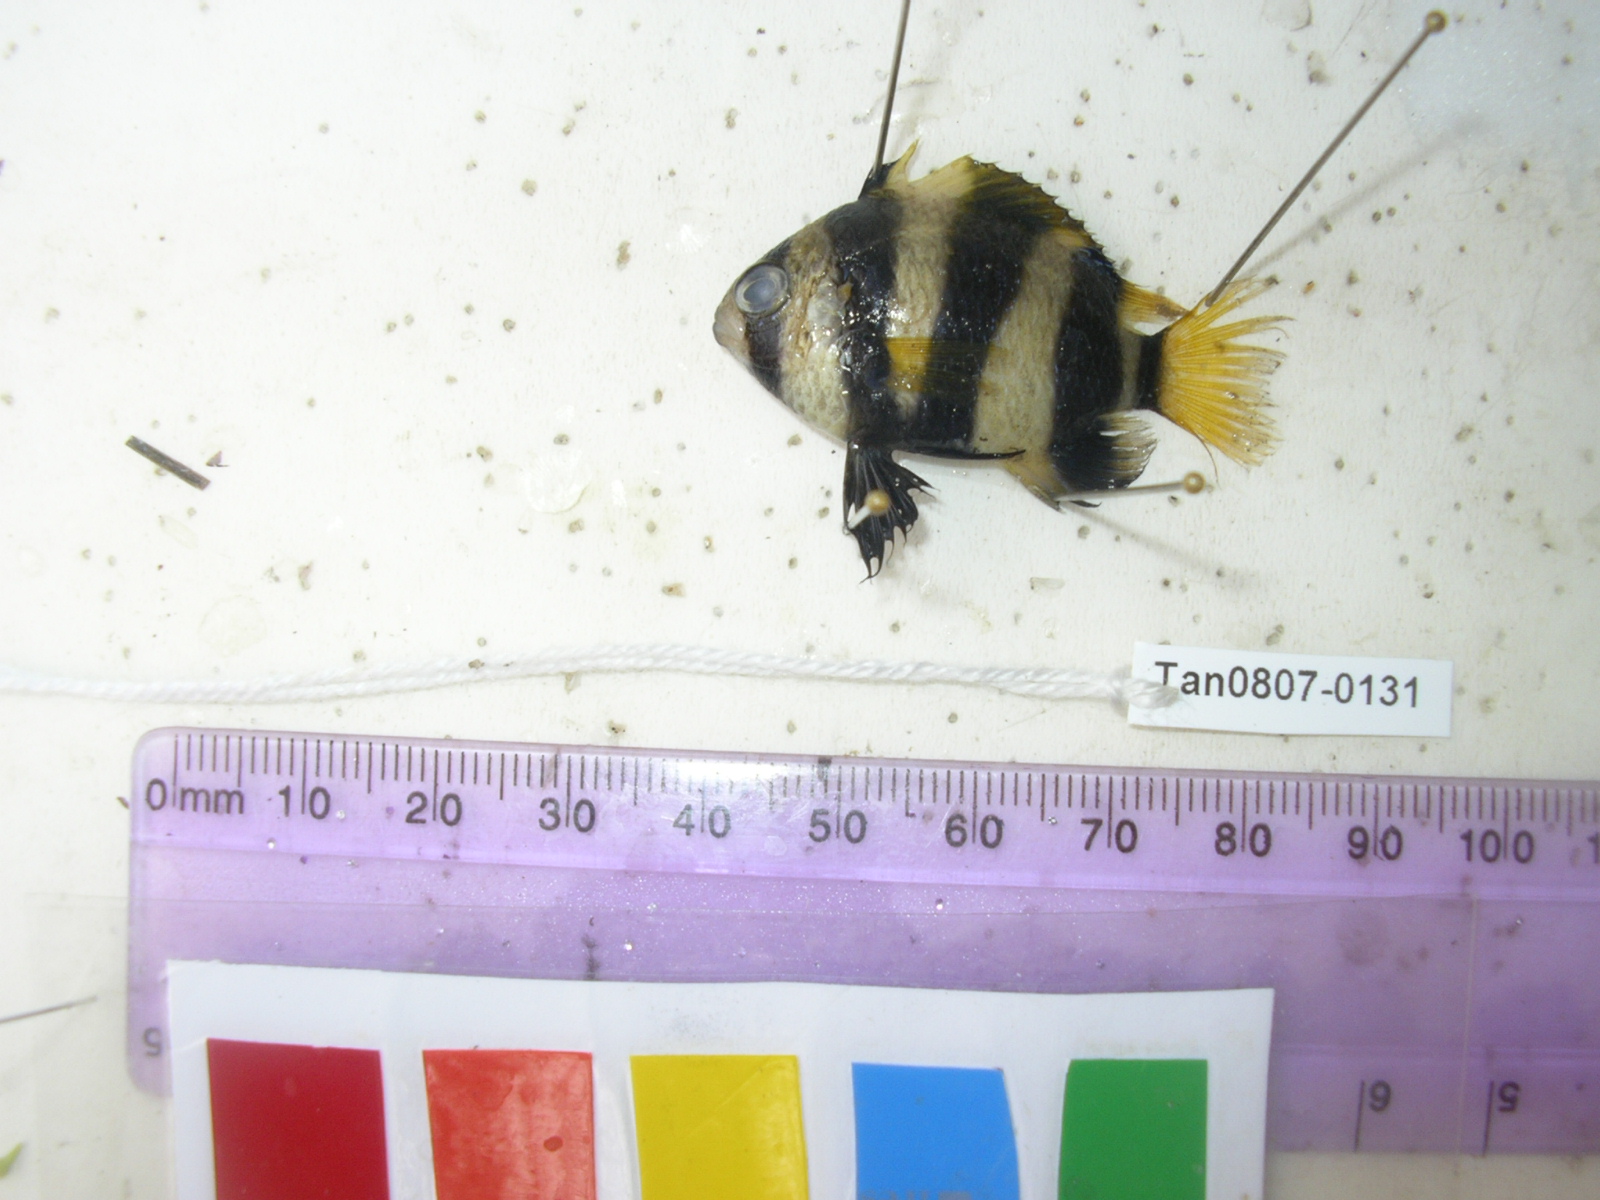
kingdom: Animalia
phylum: Chordata
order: Perciformes
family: Pomacentridae
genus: Chrysiptera
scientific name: Chrysiptera annulata
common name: Footballer demoiselle
